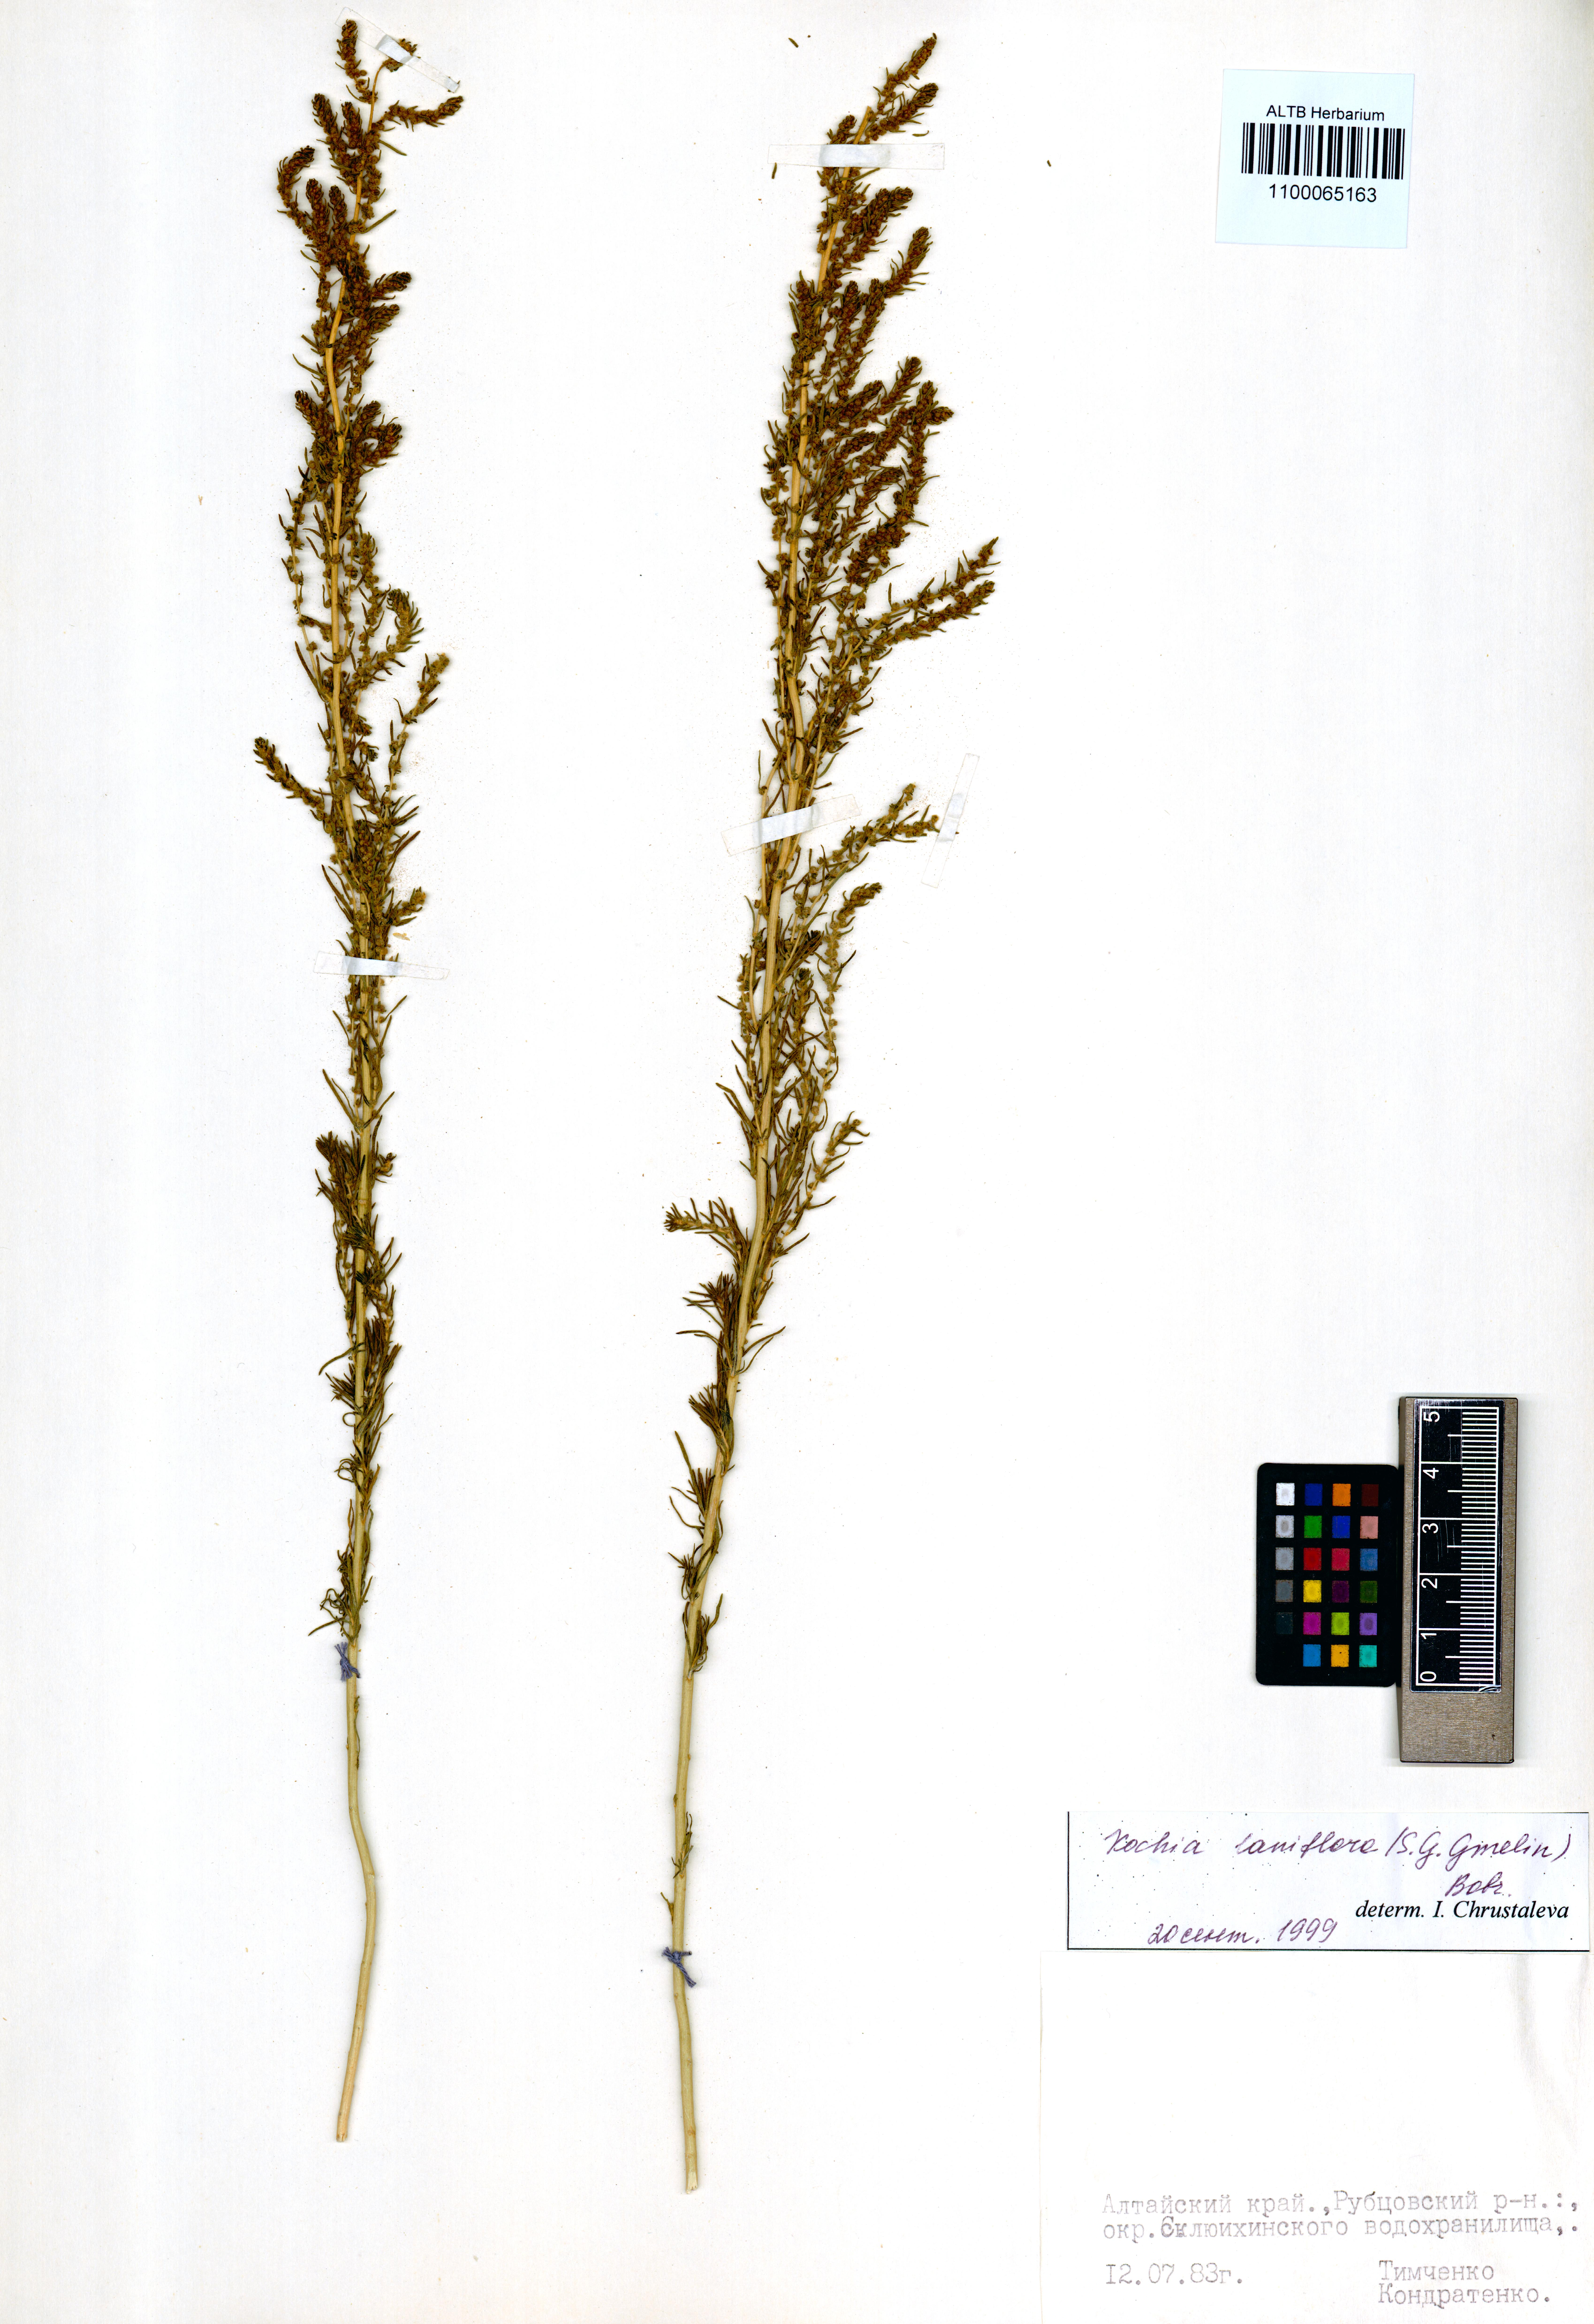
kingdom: Plantae
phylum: Tracheophyta
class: Magnoliopsida
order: Caryophyllales
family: Amaranthaceae
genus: Bassia
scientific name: Bassia laniflora
